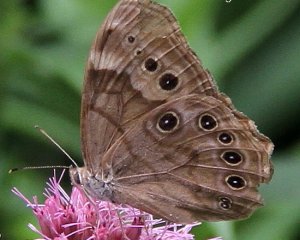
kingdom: Animalia
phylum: Arthropoda
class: Insecta
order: Lepidoptera
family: Nymphalidae
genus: Lethe
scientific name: Lethe anthedon
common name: Northern Pearly-Eye
